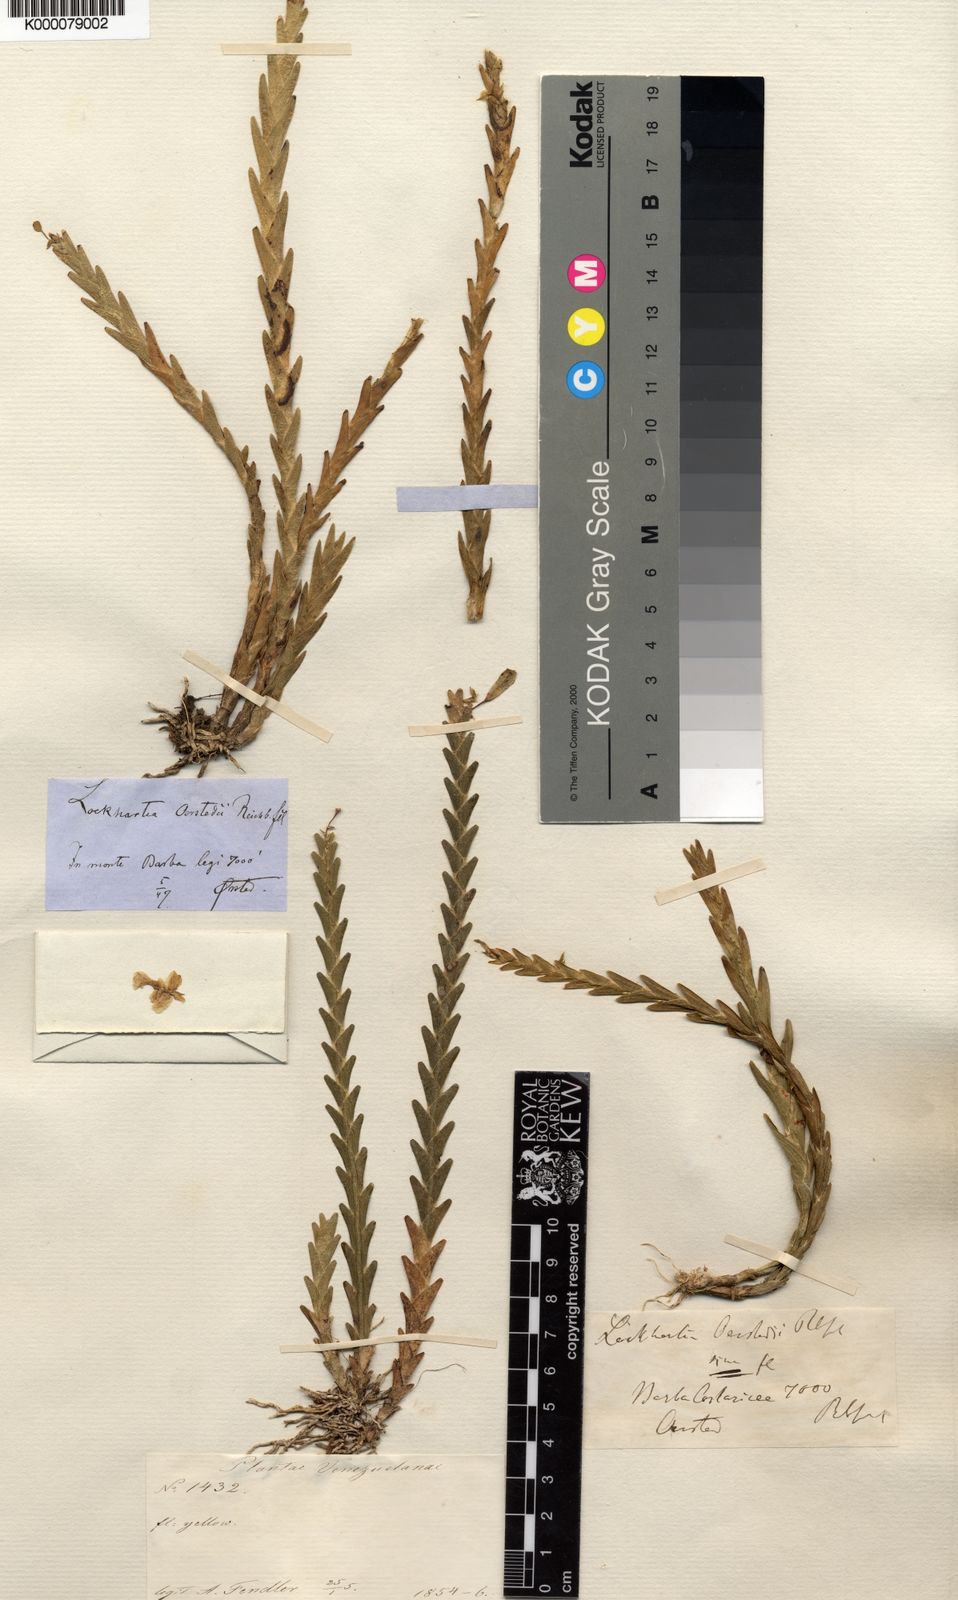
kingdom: Plantae
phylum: Tracheophyta
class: Liliopsida
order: Asparagales
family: Orchidaceae
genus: Lockhartia
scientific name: Lockhartia oerstedii
